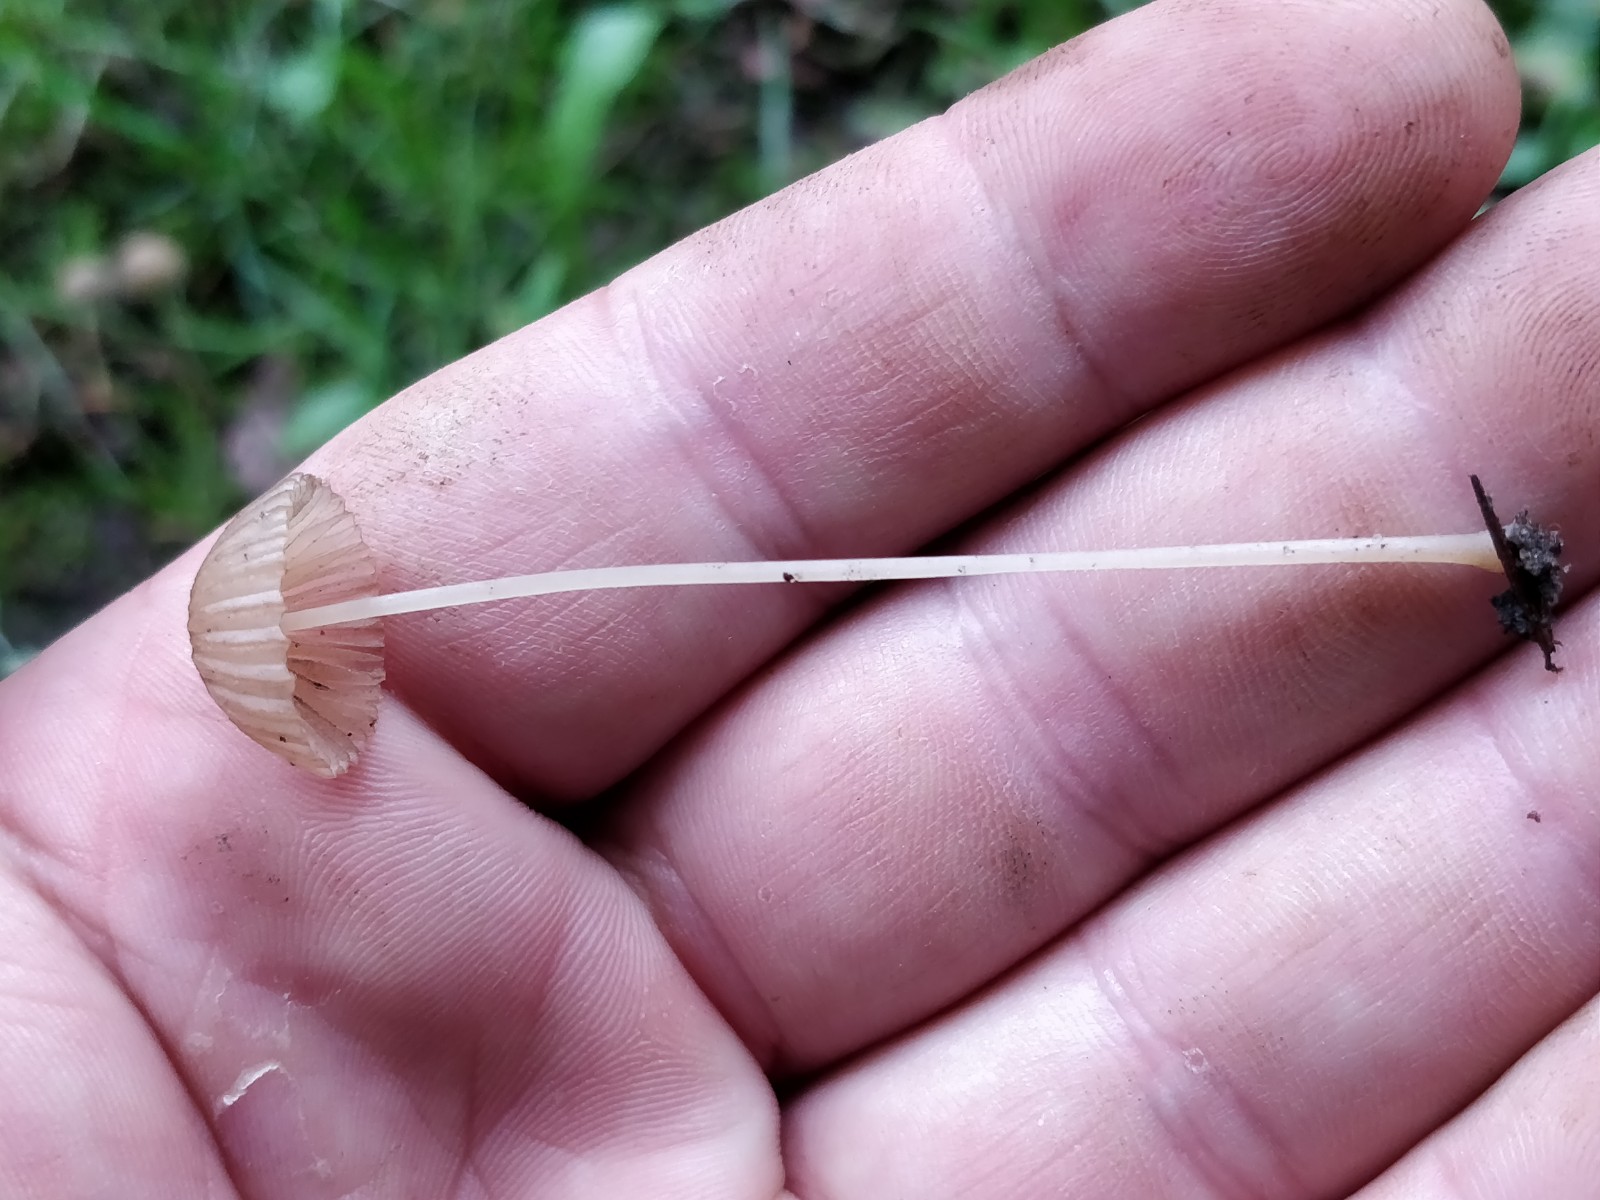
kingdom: Fungi
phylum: Basidiomycota
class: Agaricomycetes
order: Agaricales
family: Psathyrellaceae
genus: Parasola
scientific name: Parasola
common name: hjulhat
